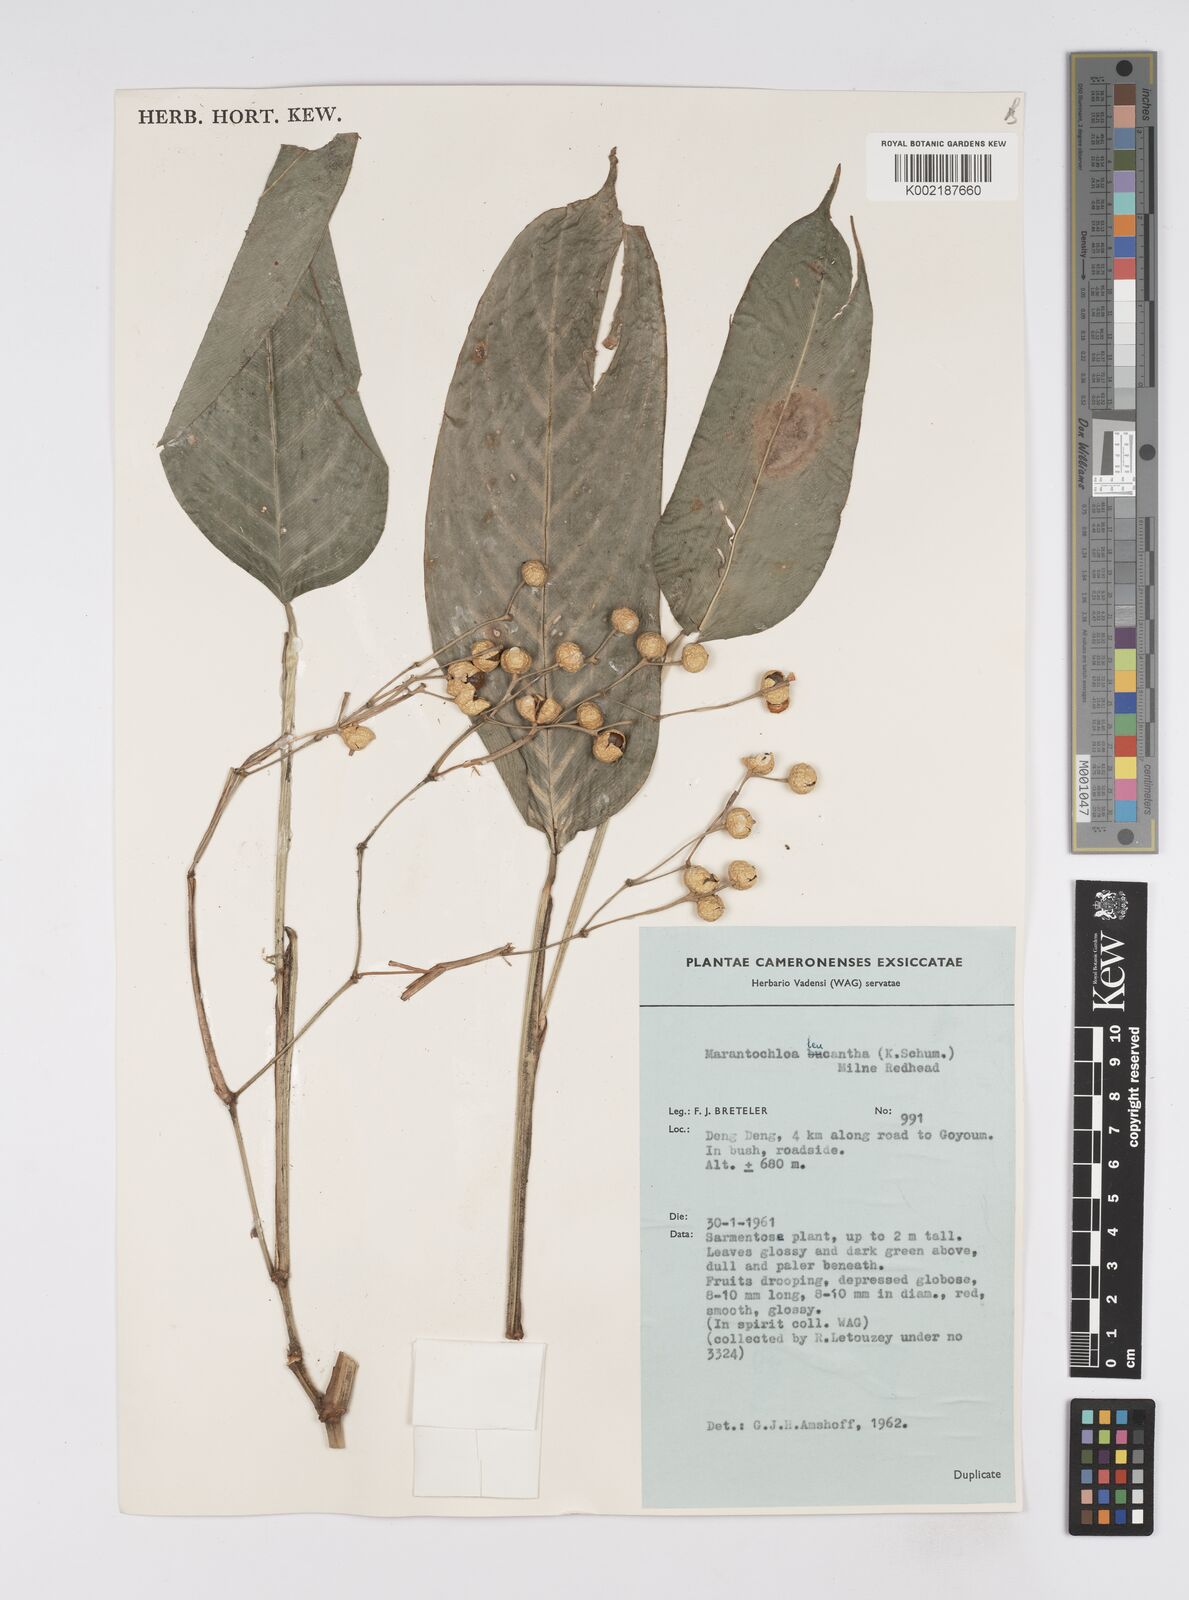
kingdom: Plantae
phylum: Tracheophyta
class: Liliopsida
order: Zingiberales
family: Marantaceae
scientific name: Marantaceae
